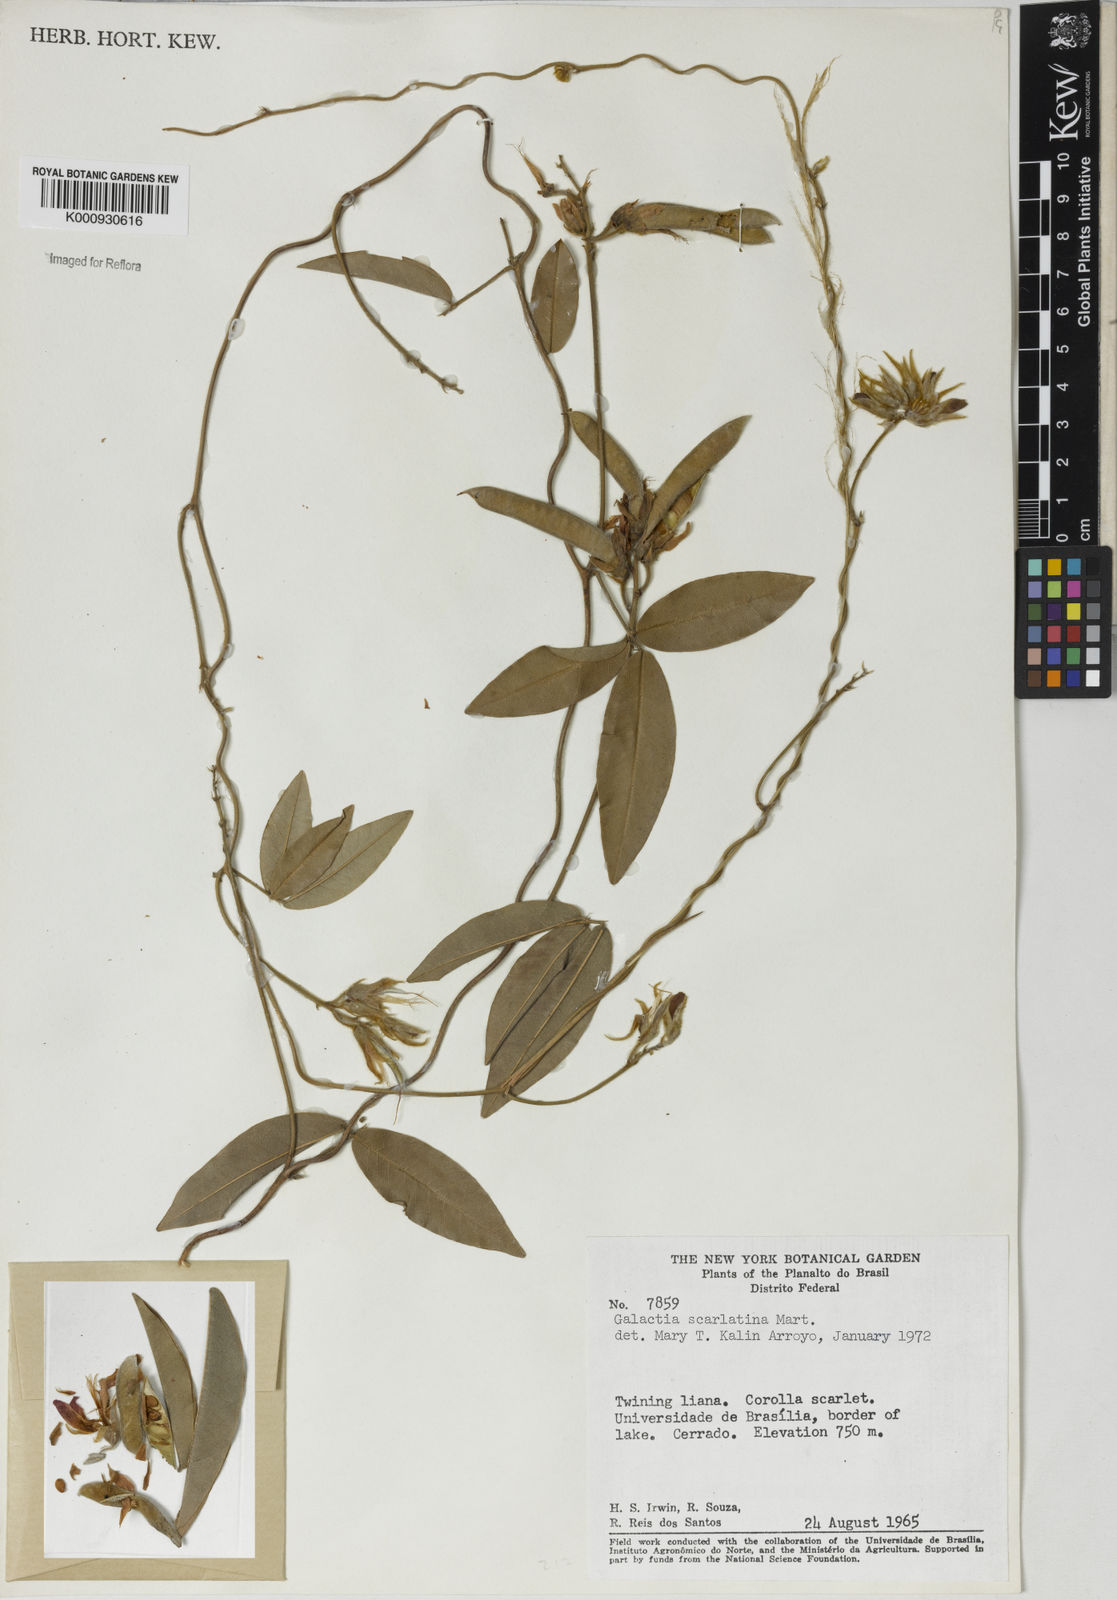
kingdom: Plantae
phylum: Tracheophyta
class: Magnoliopsida
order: Fabales
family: Fabaceae
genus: Betencourtia
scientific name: Betencourtia scarlatina
